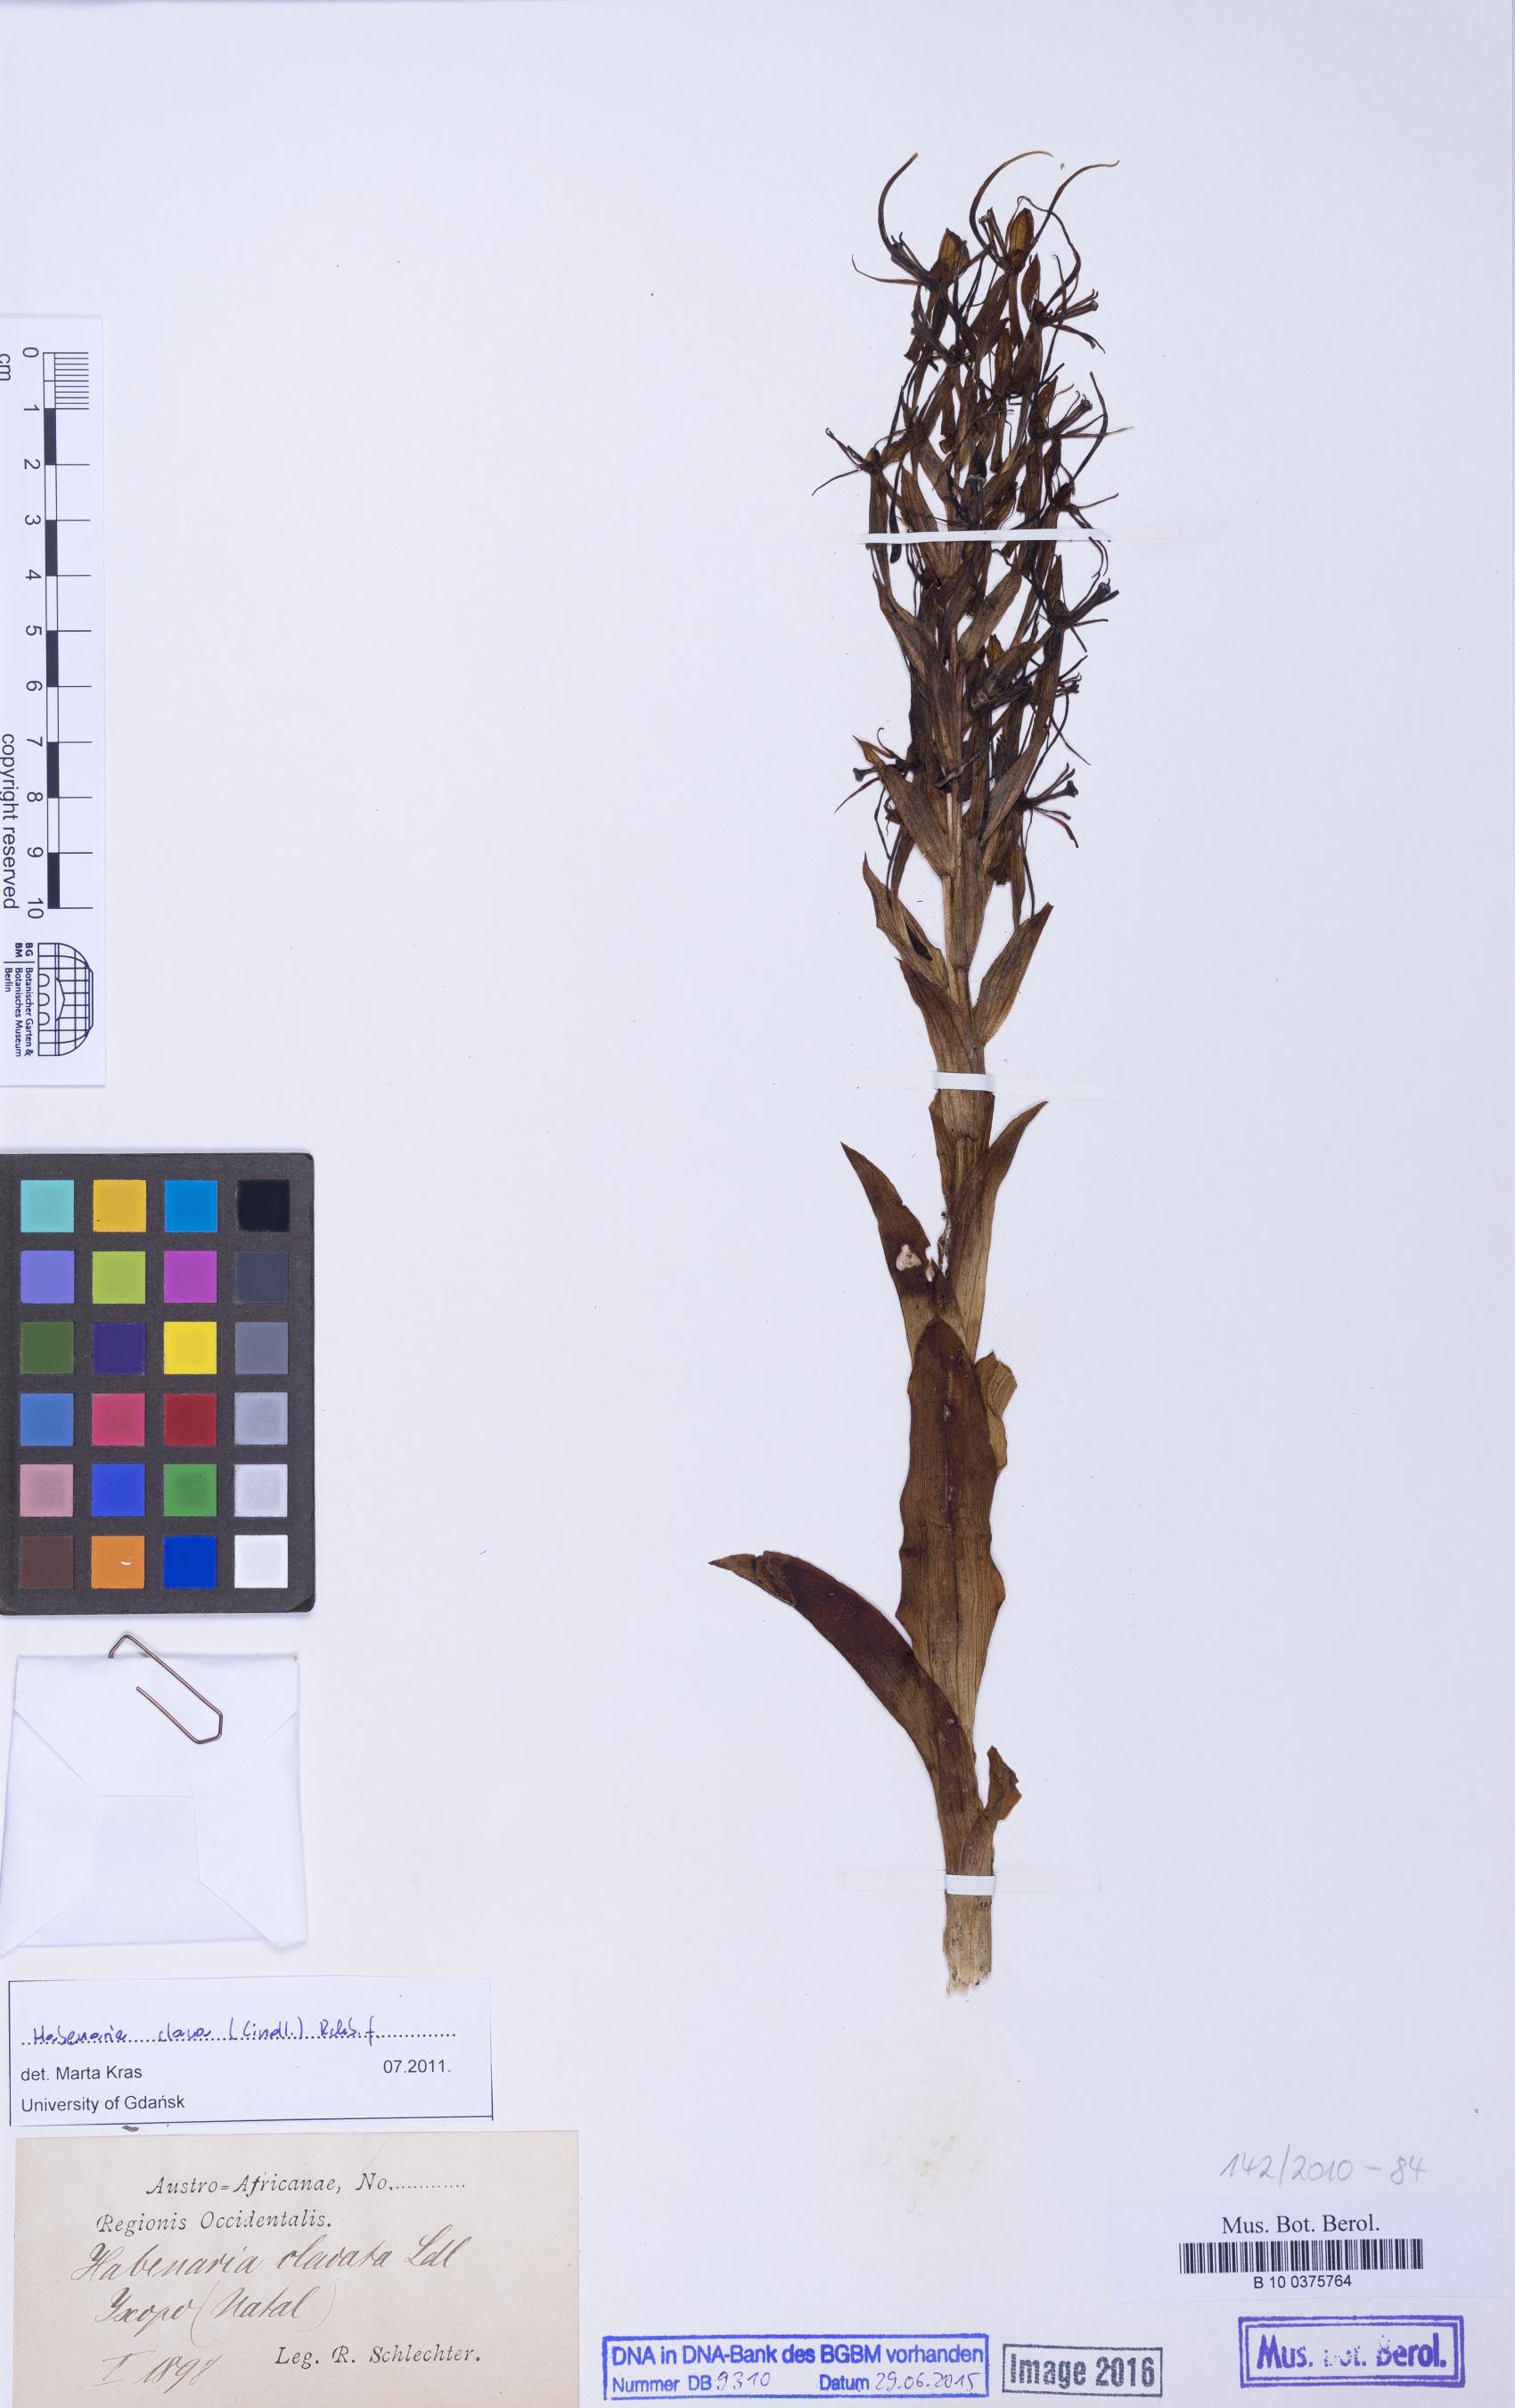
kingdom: Plantae
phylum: Tracheophyta
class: Liliopsida
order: Asparagales
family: Orchidaceae
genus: Habenaria
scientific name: Habenaria clavata
